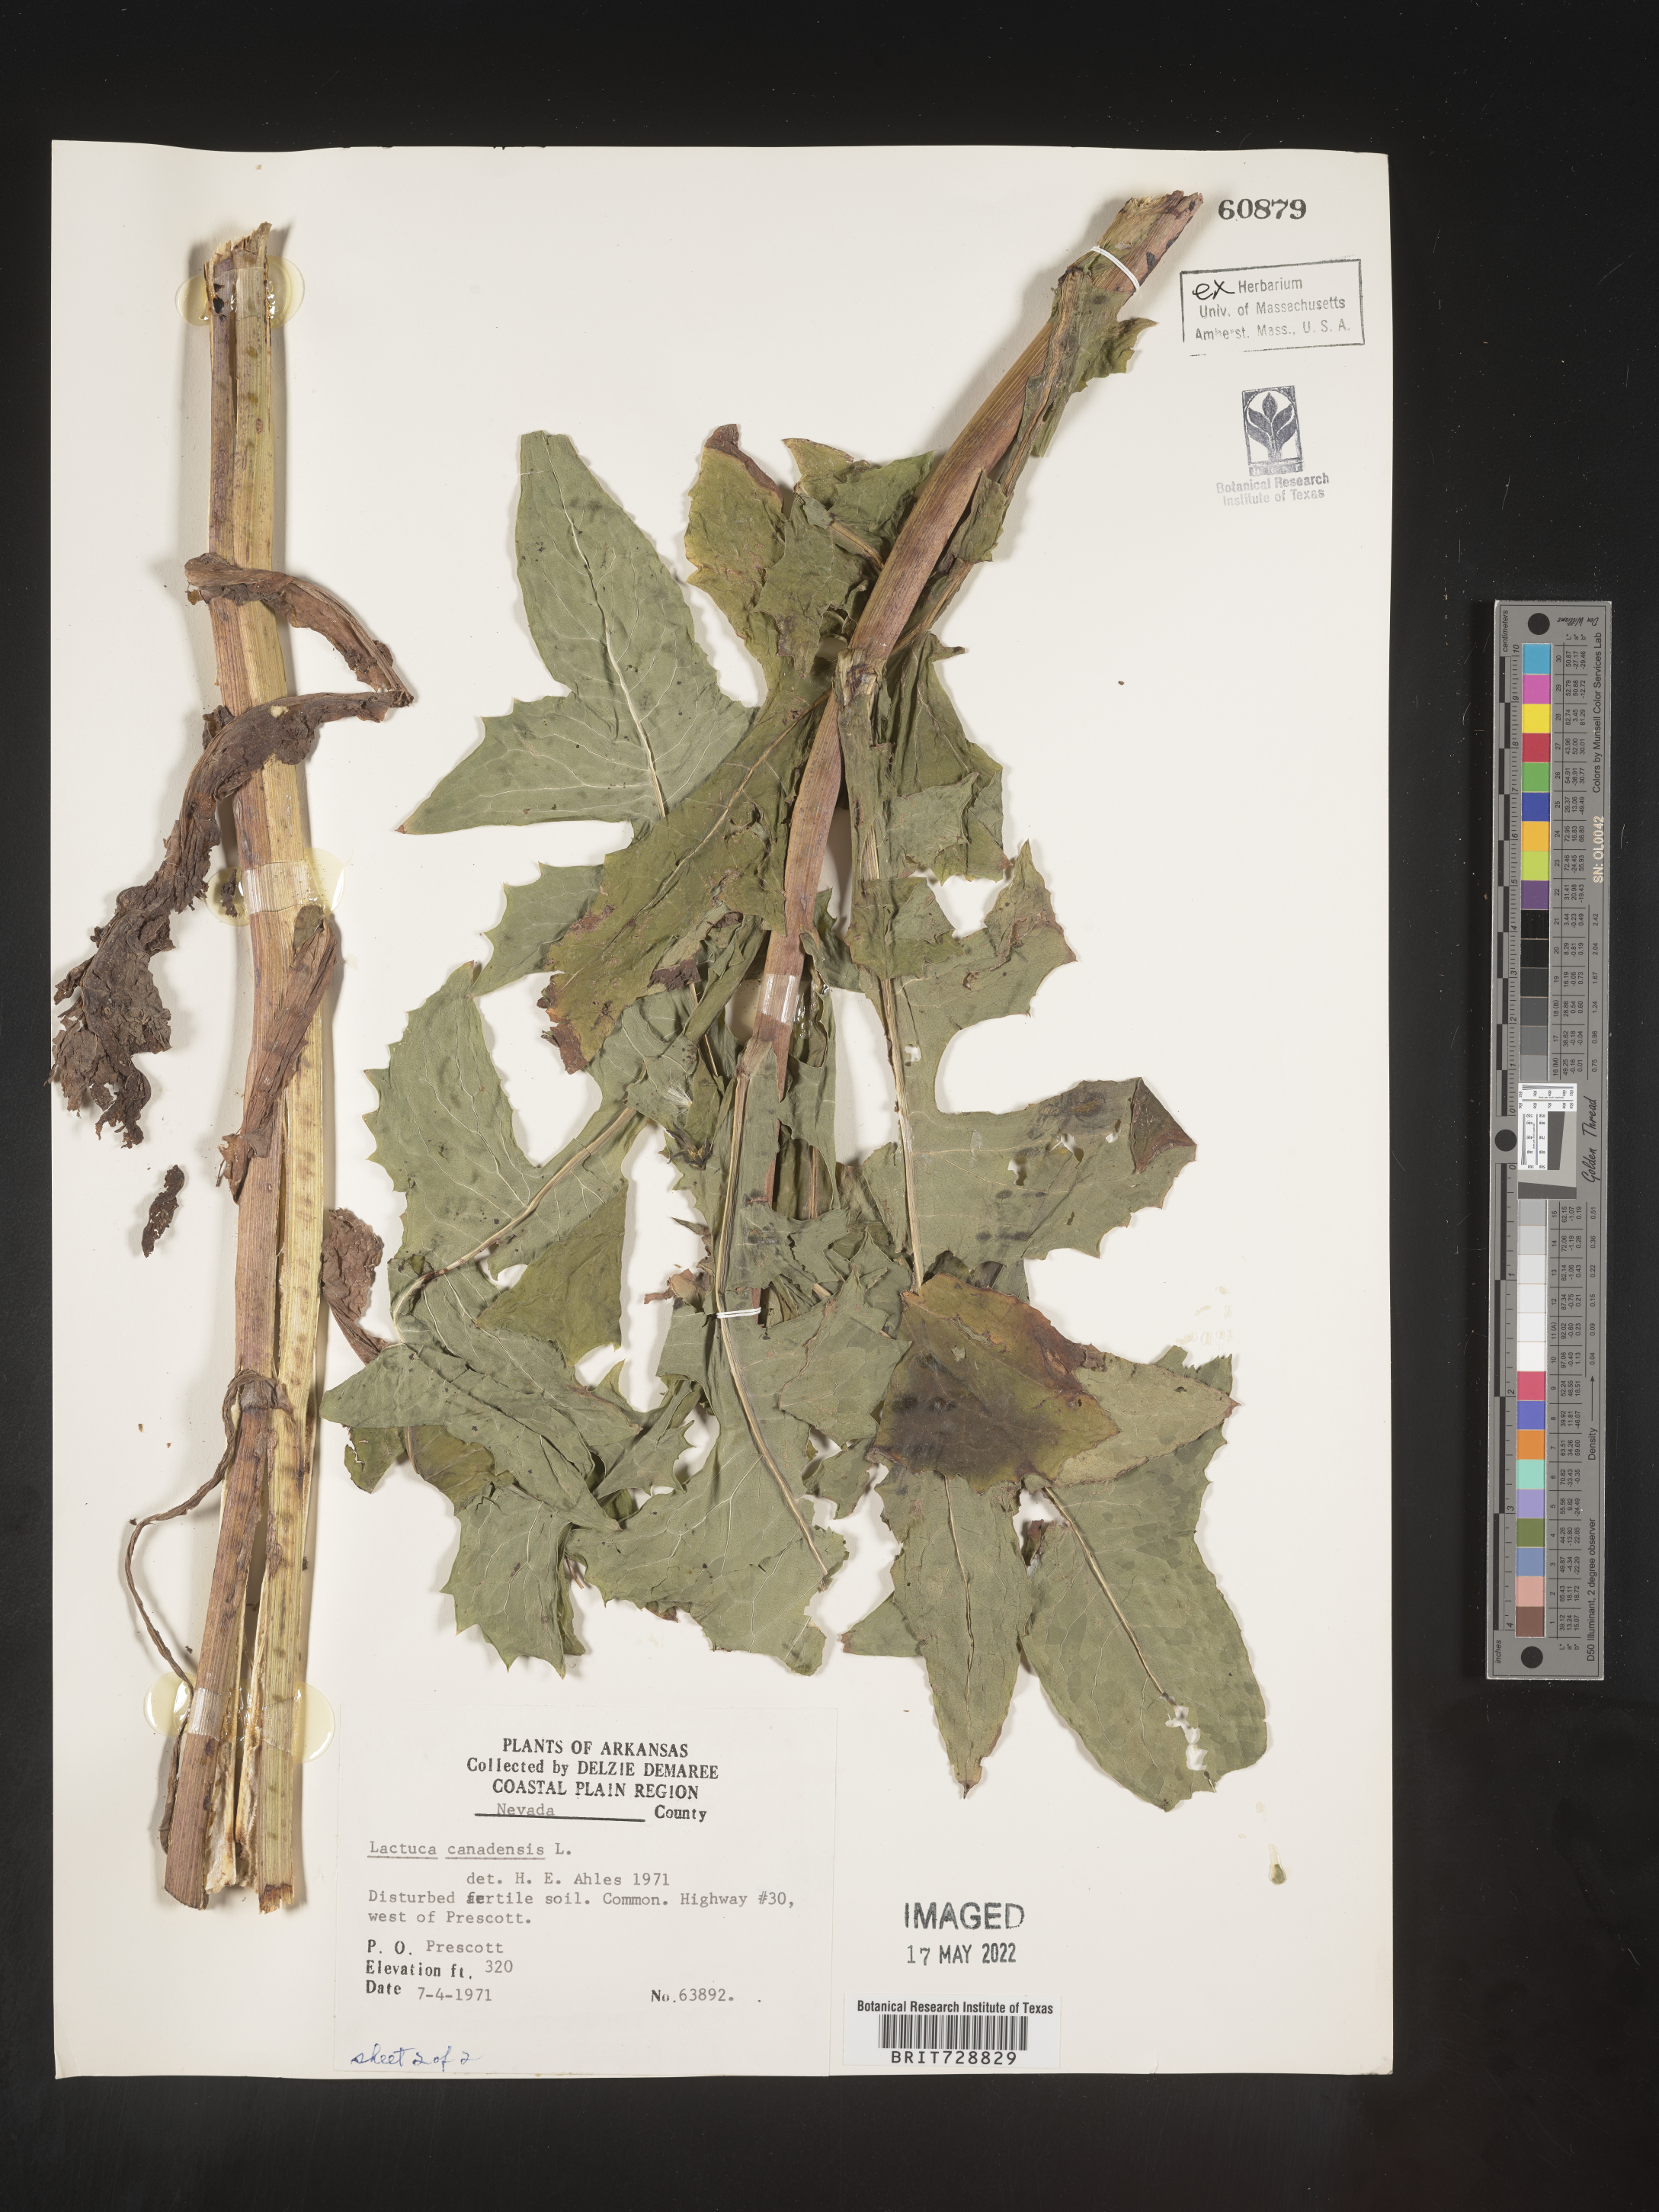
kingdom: Plantae
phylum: Tracheophyta
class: Magnoliopsida
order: Asterales
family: Asteraceae
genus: Lactuca
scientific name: Lactuca canadensis
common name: Canada lettuce
